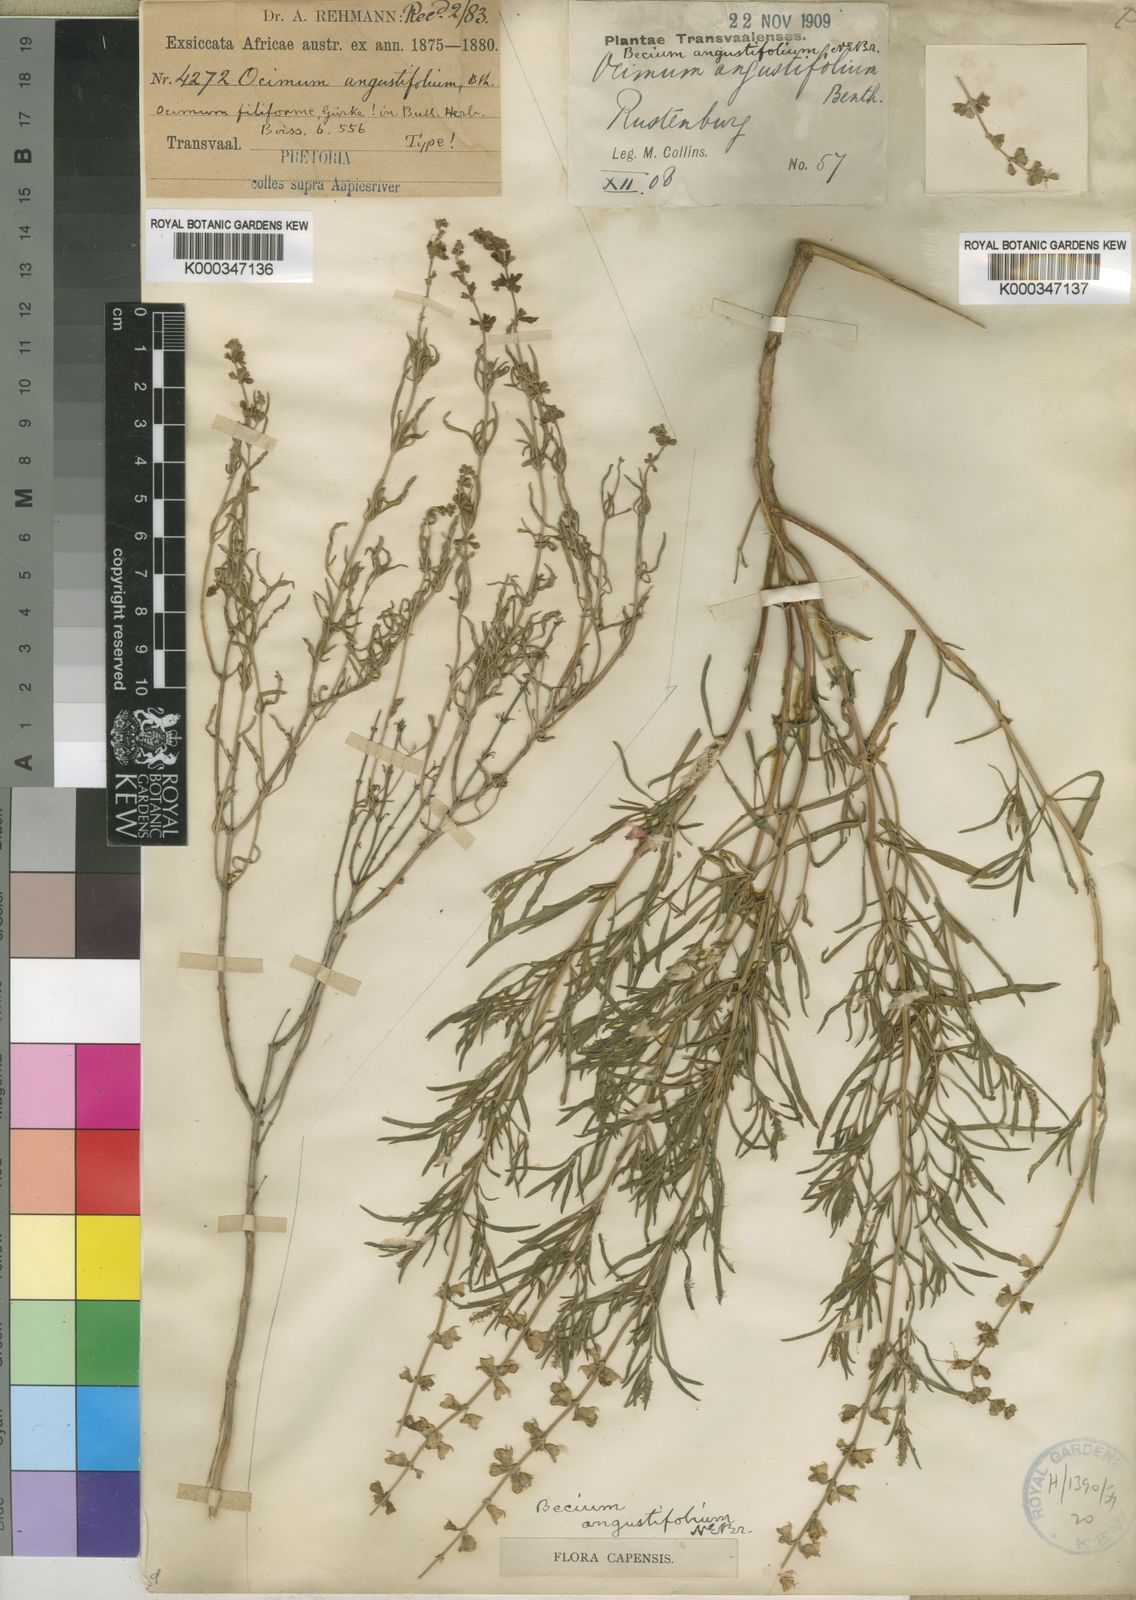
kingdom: Plantae
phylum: Tracheophyta
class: Magnoliopsida
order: Lamiales
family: Lamiaceae
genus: Ocimum
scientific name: Ocimum angustifolium
